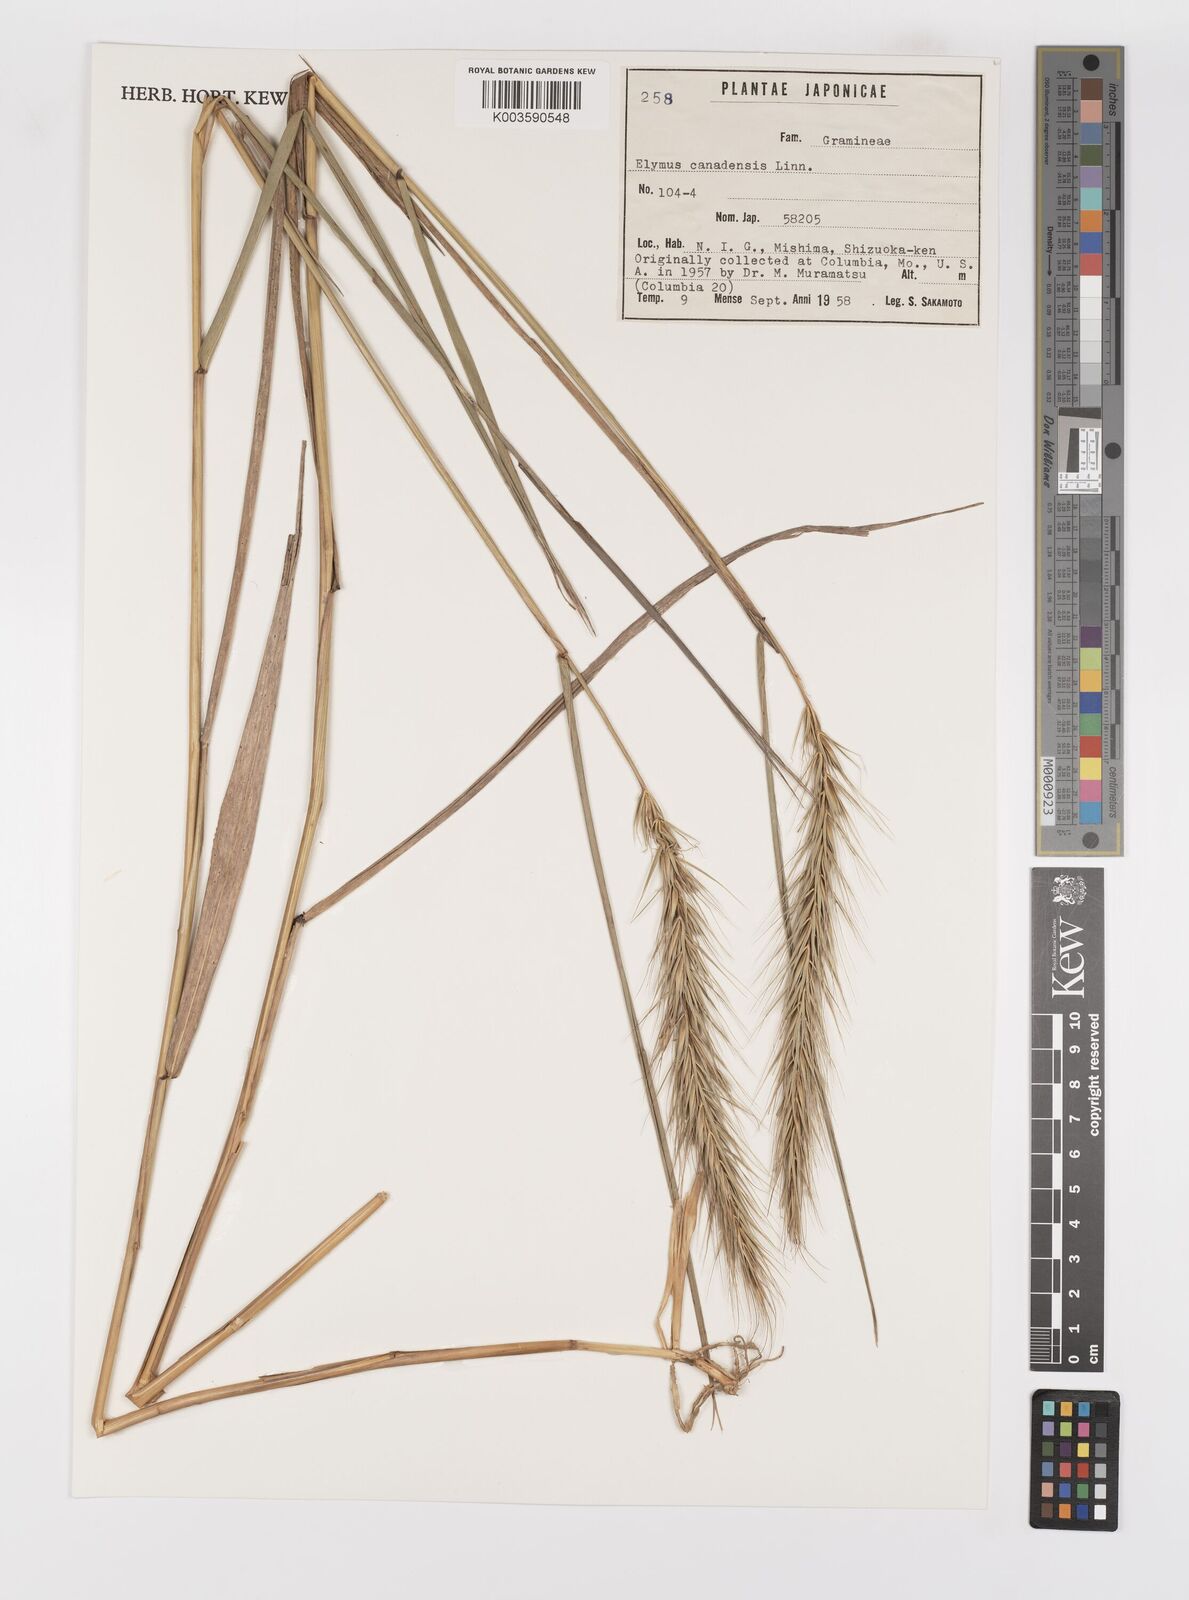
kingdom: Plantae
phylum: Tracheophyta
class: Liliopsida
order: Poales
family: Poaceae
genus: Elymus
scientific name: Elymus canadensis
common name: Canada wild rye
